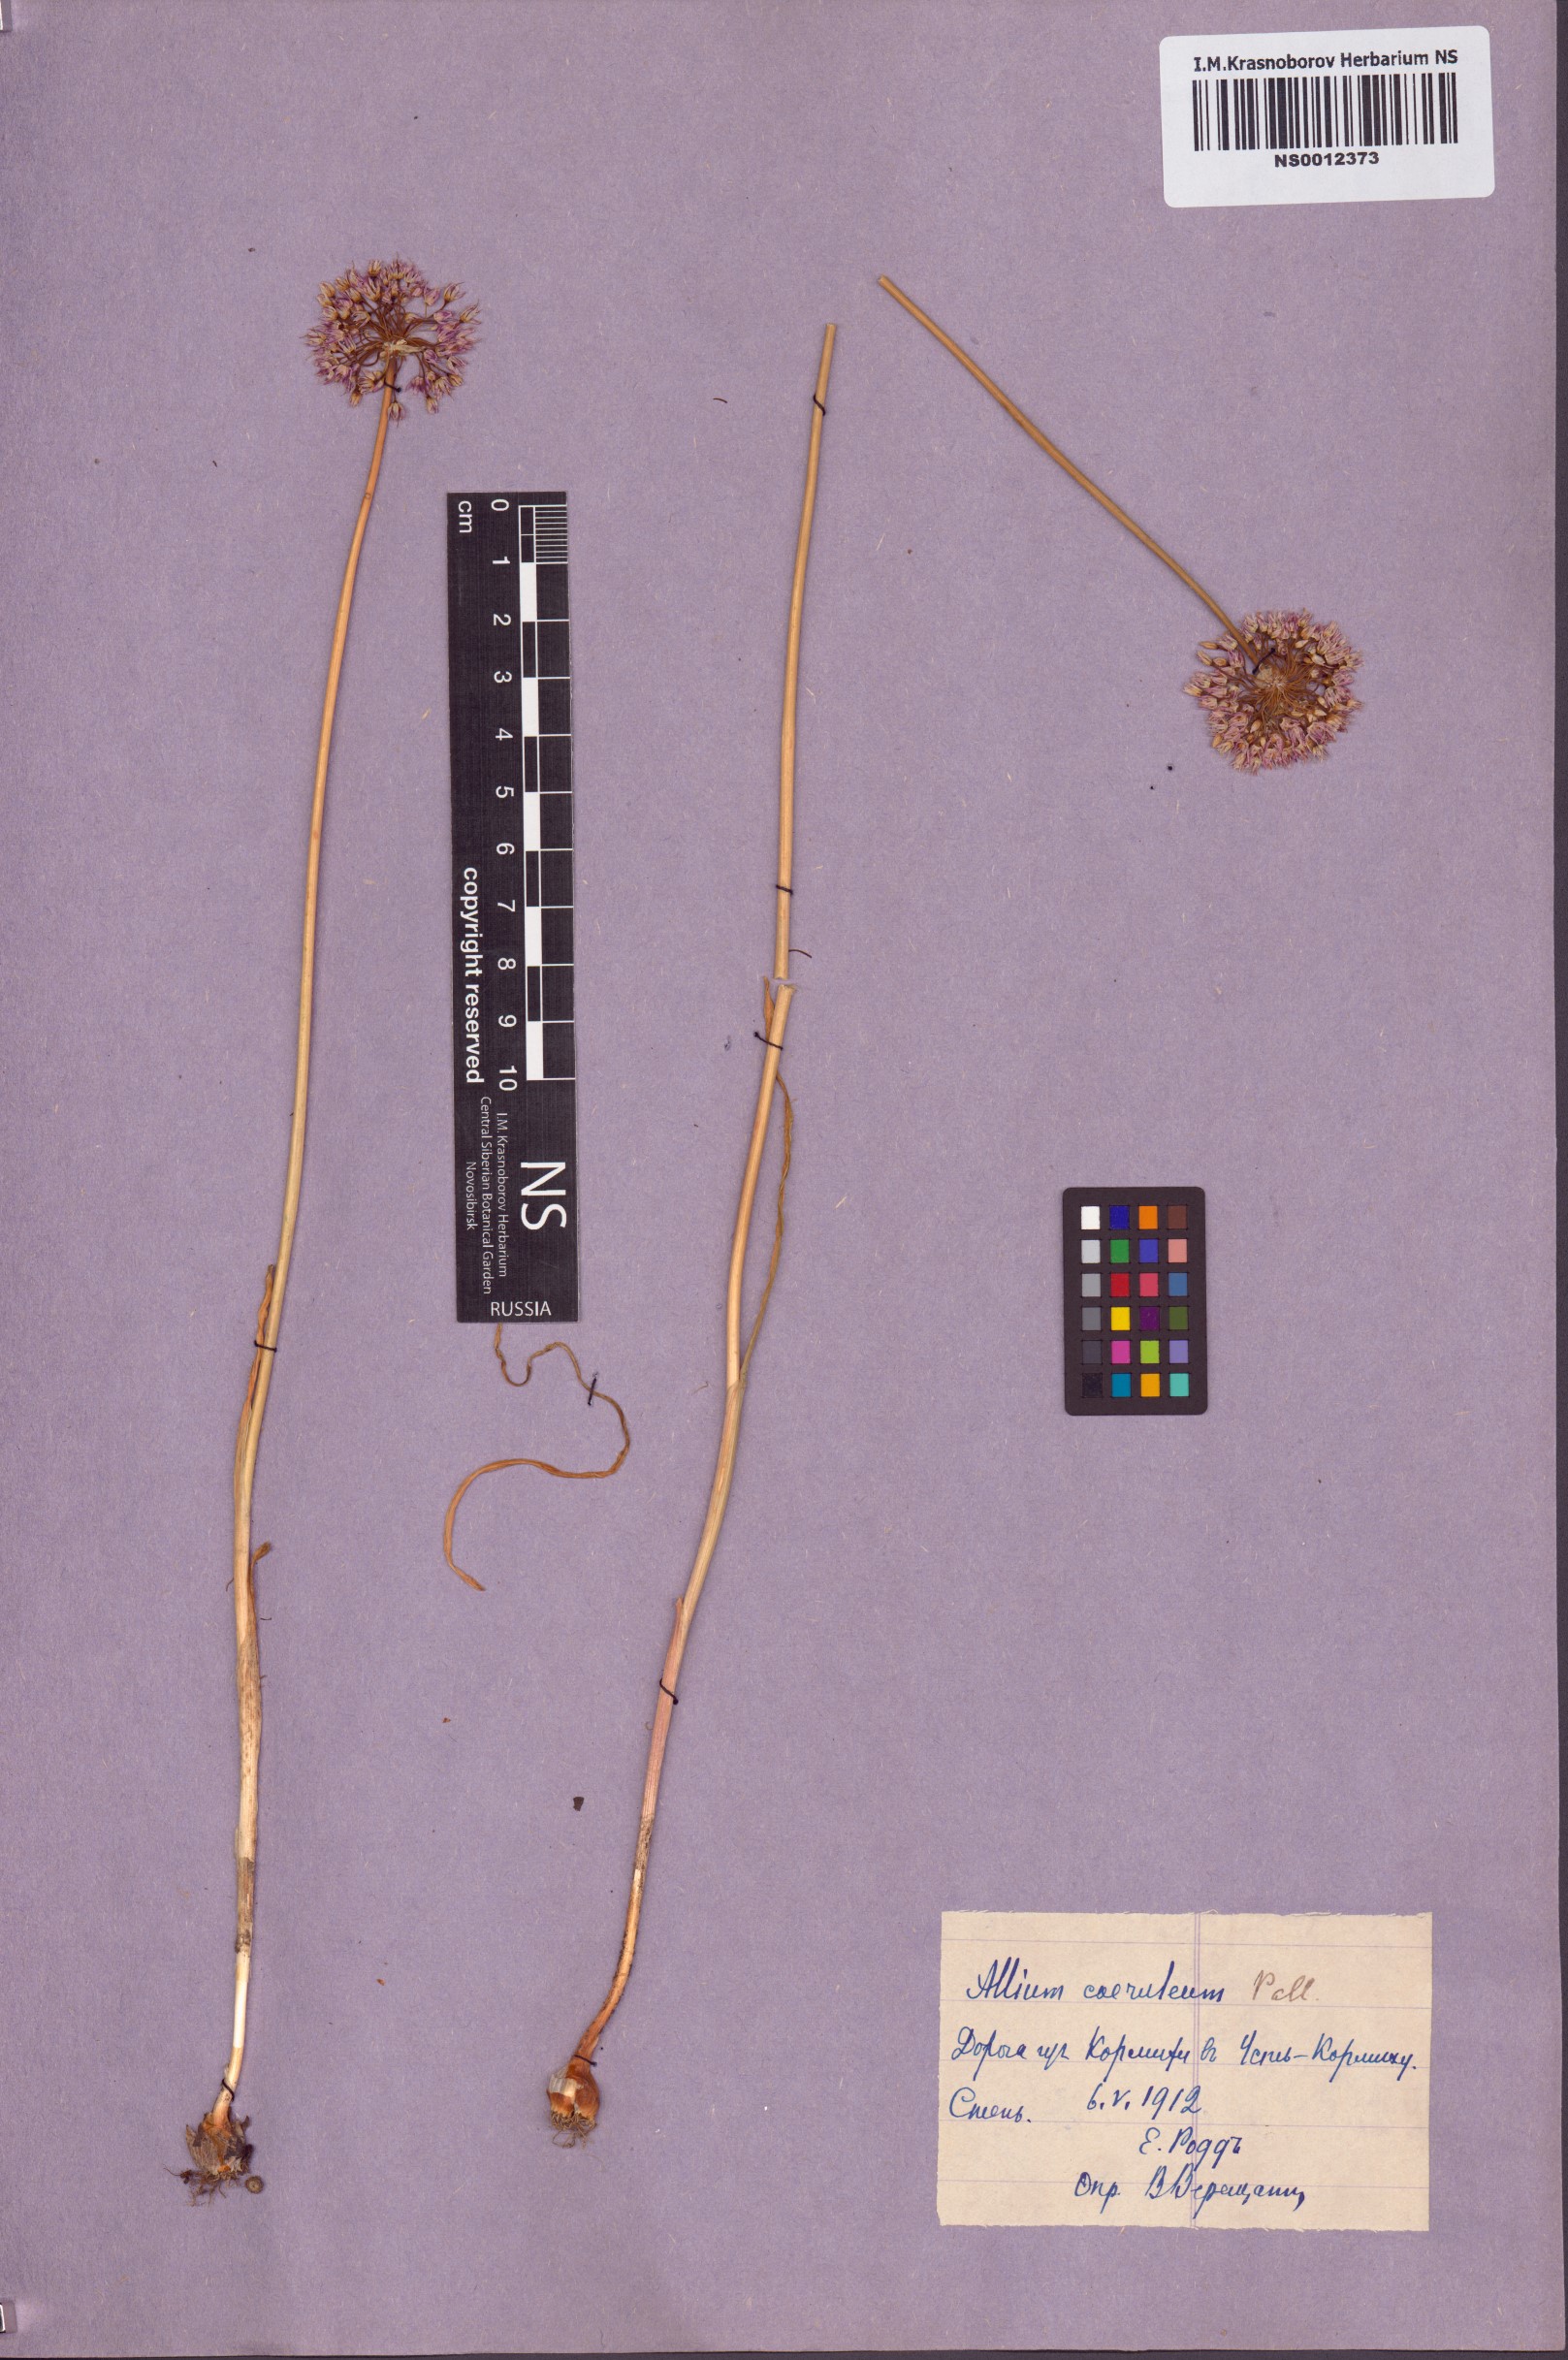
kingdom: Plantae
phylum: Tracheophyta
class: Liliopsida
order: Asparagales
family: Amaryllidaceae
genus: Allium
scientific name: Allium caeruleum
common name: Blue-of-the-heavens
